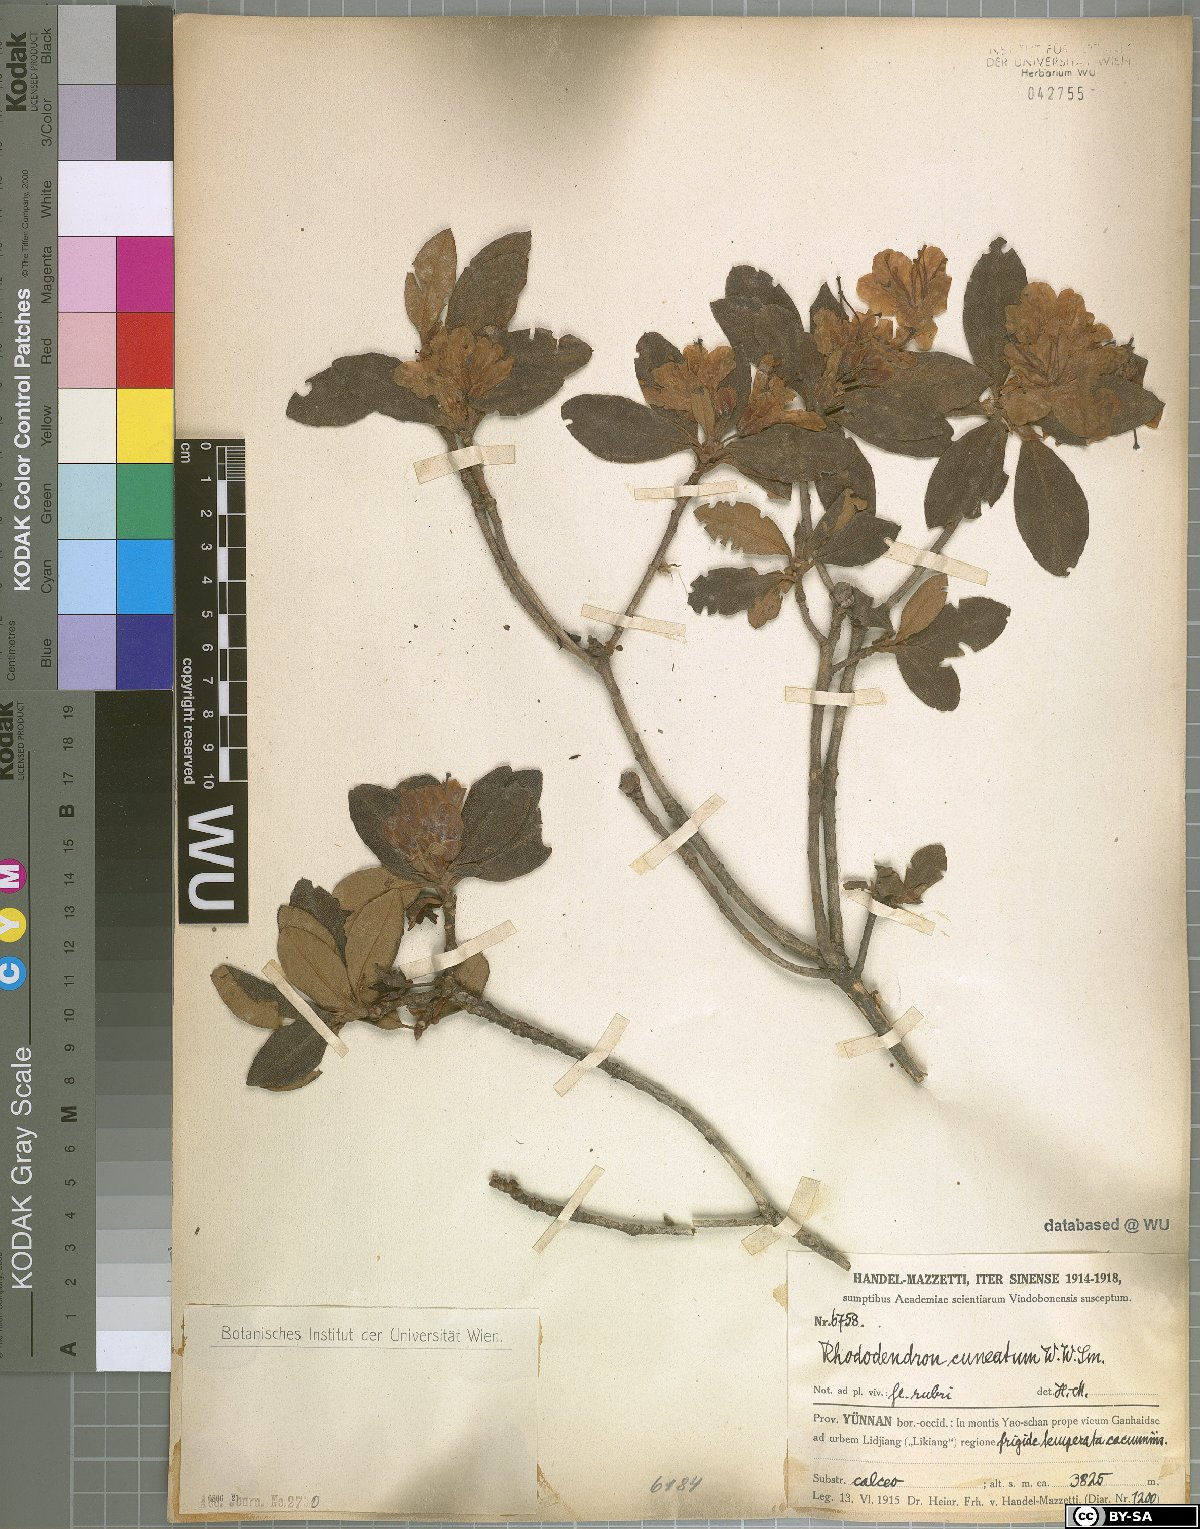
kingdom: Plantae
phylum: Tracheophyta
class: Magnoliopsida
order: Ericales
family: Ericaceae
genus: Rhododendron
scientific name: Rhododendron cuneatum
